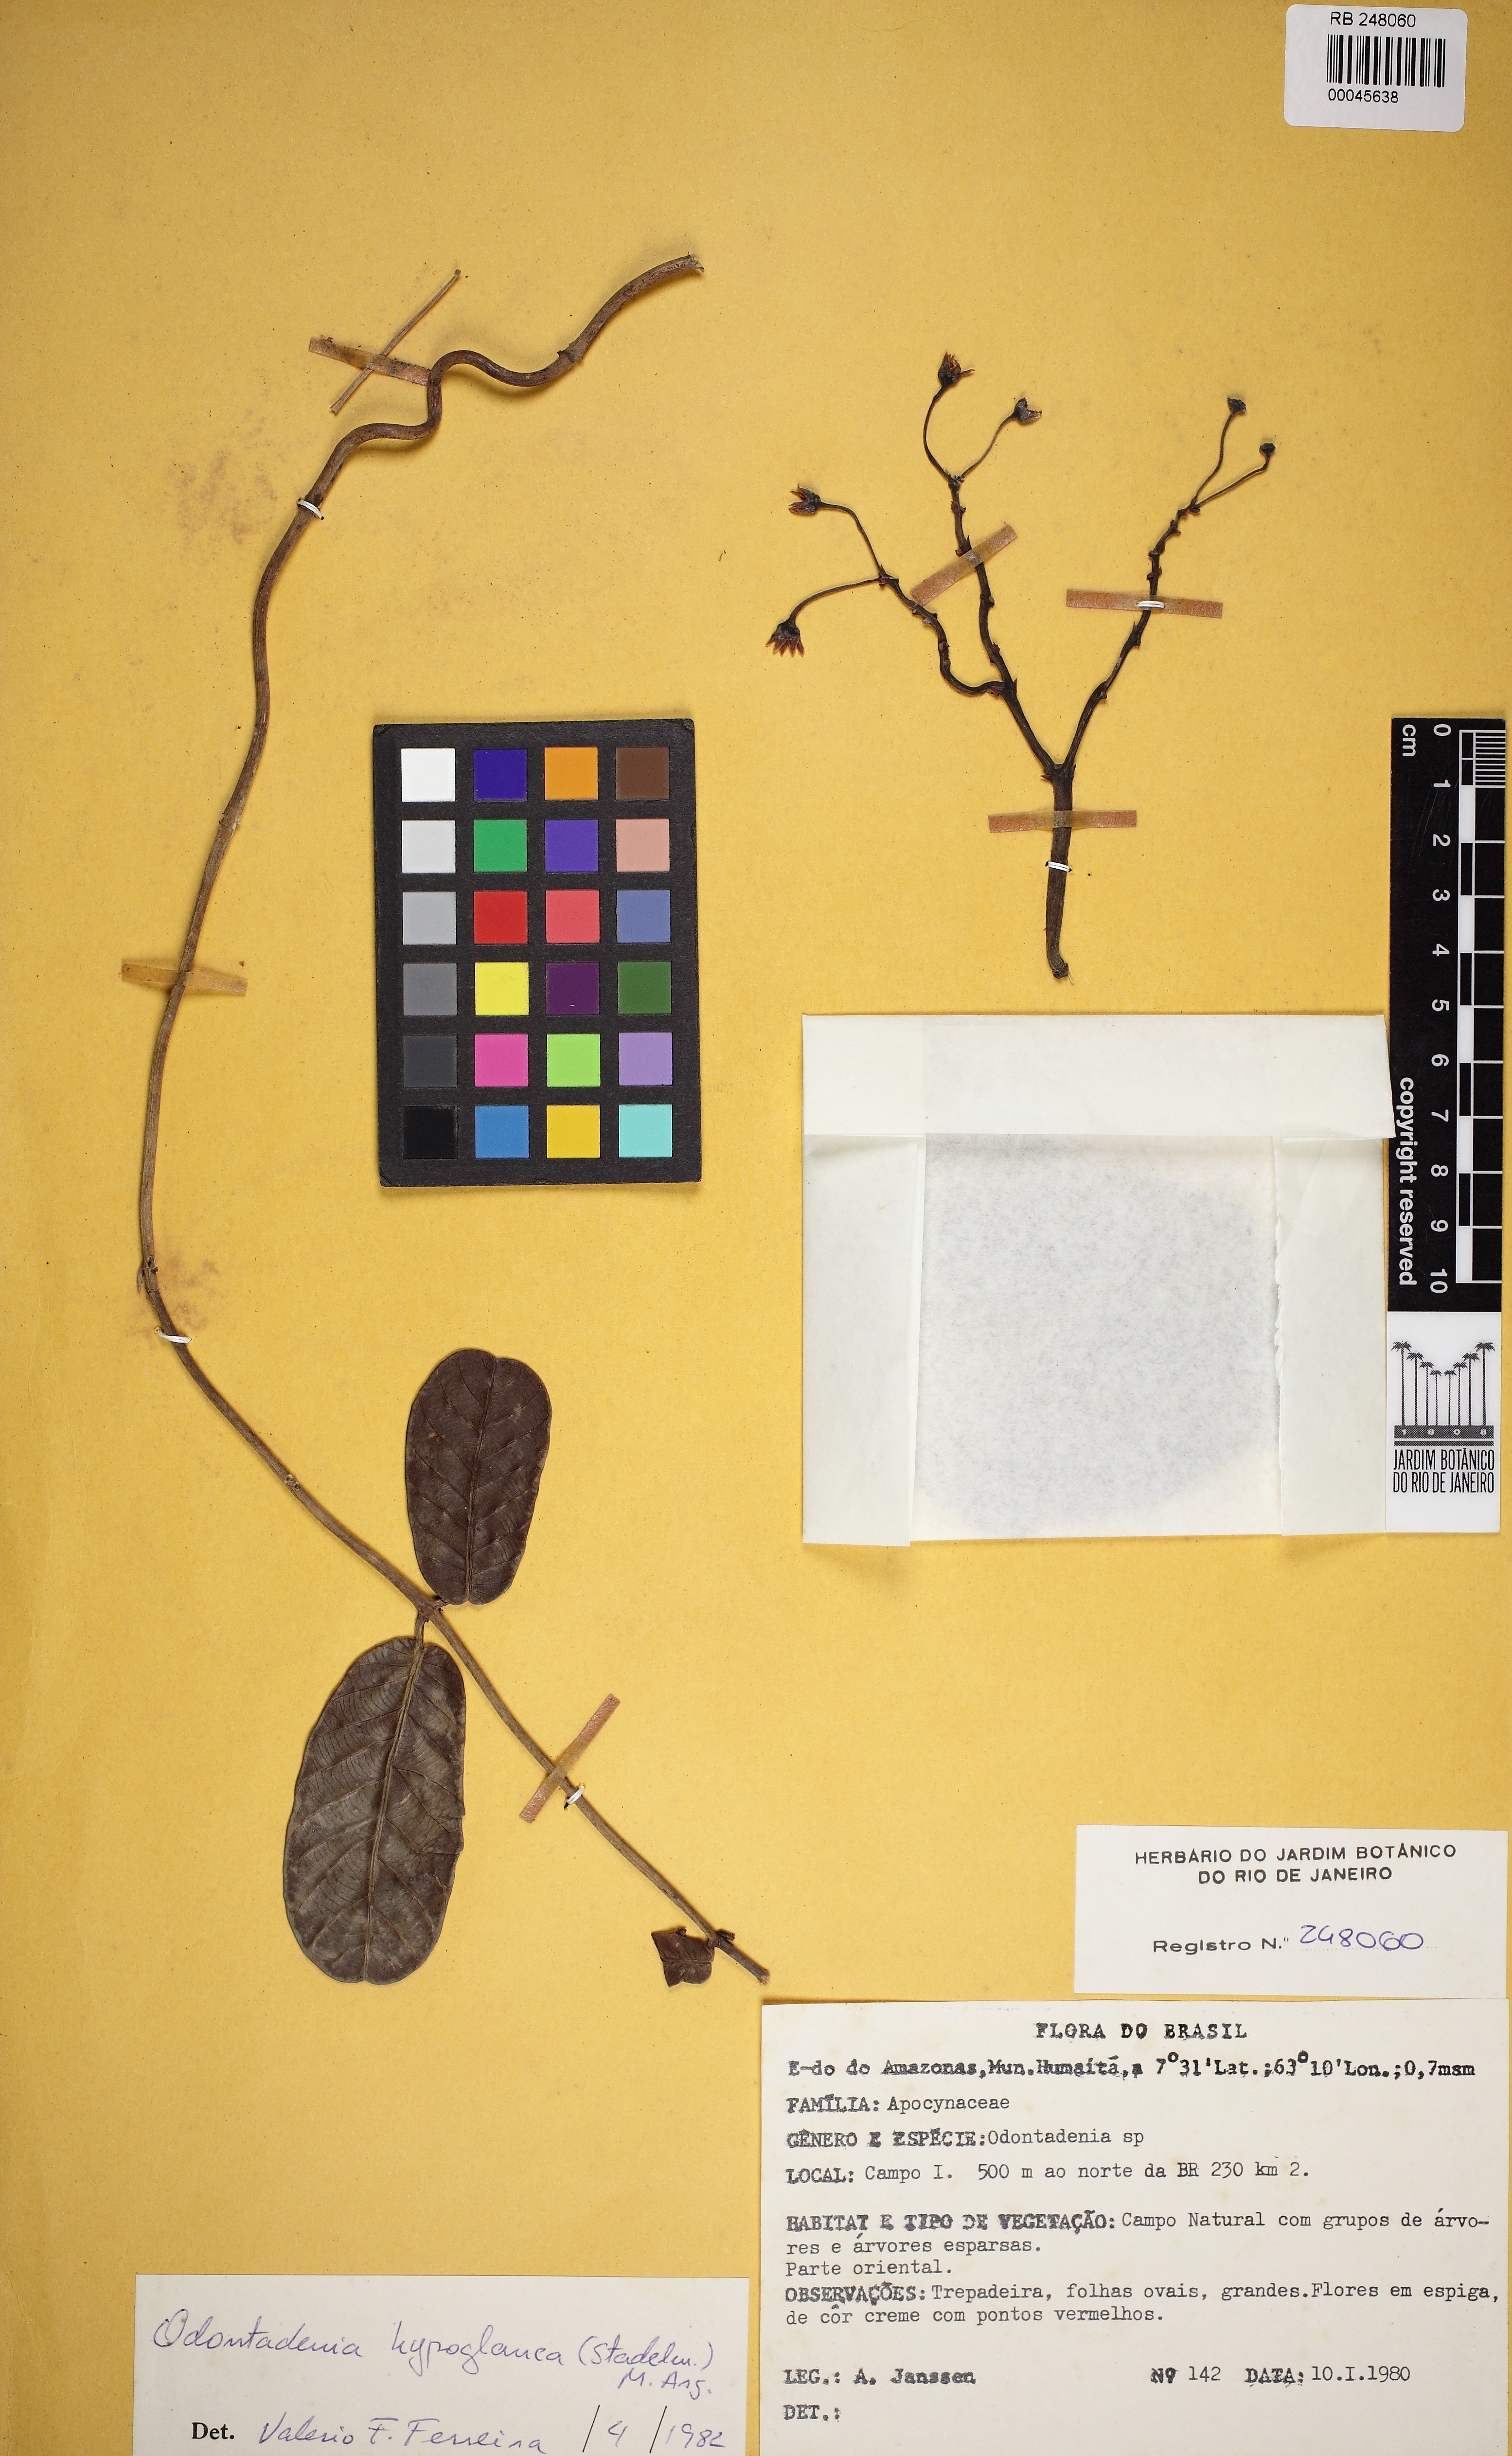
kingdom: Plantae
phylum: Tracheophyta
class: Magnoliopsida
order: Gentianales
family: Apocynaceae
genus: Odontadenia
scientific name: Odontadenia
